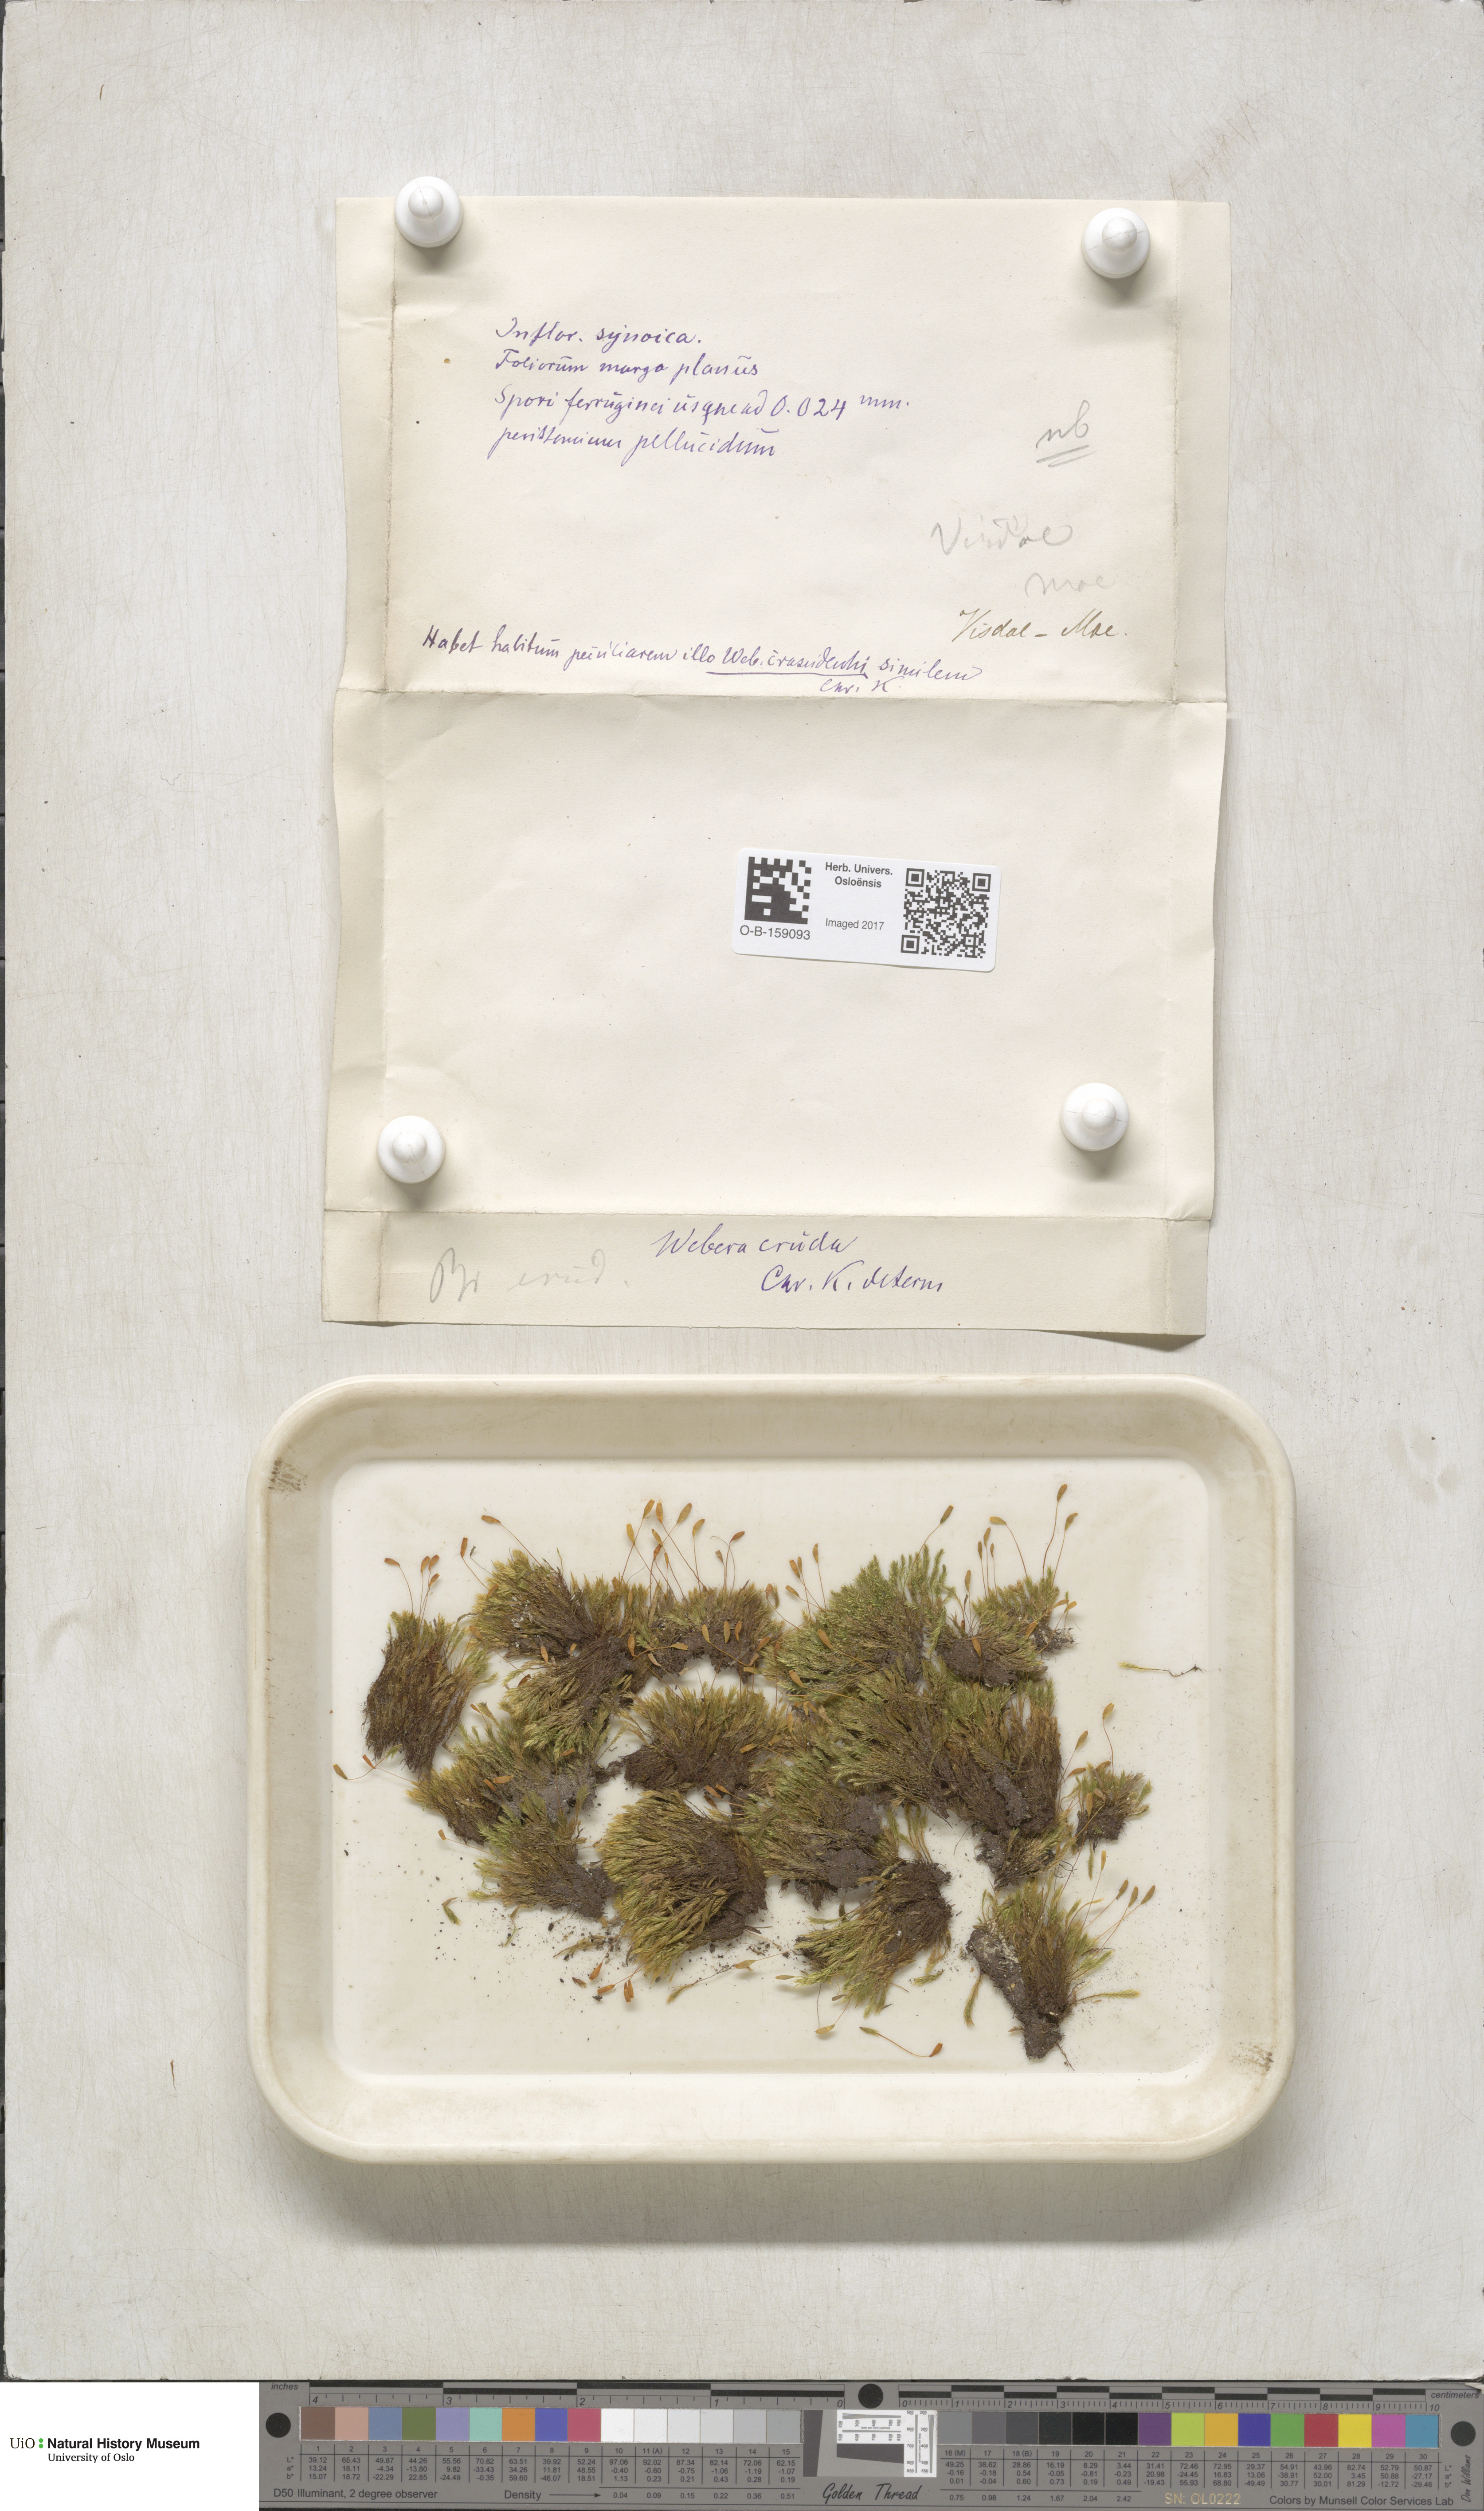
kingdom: Plantae
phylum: Bryophyta
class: Bryopsida
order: Bryales
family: Mniaceae
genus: Pohlia
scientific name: Pohlia cruda
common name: Opal nodding moss
